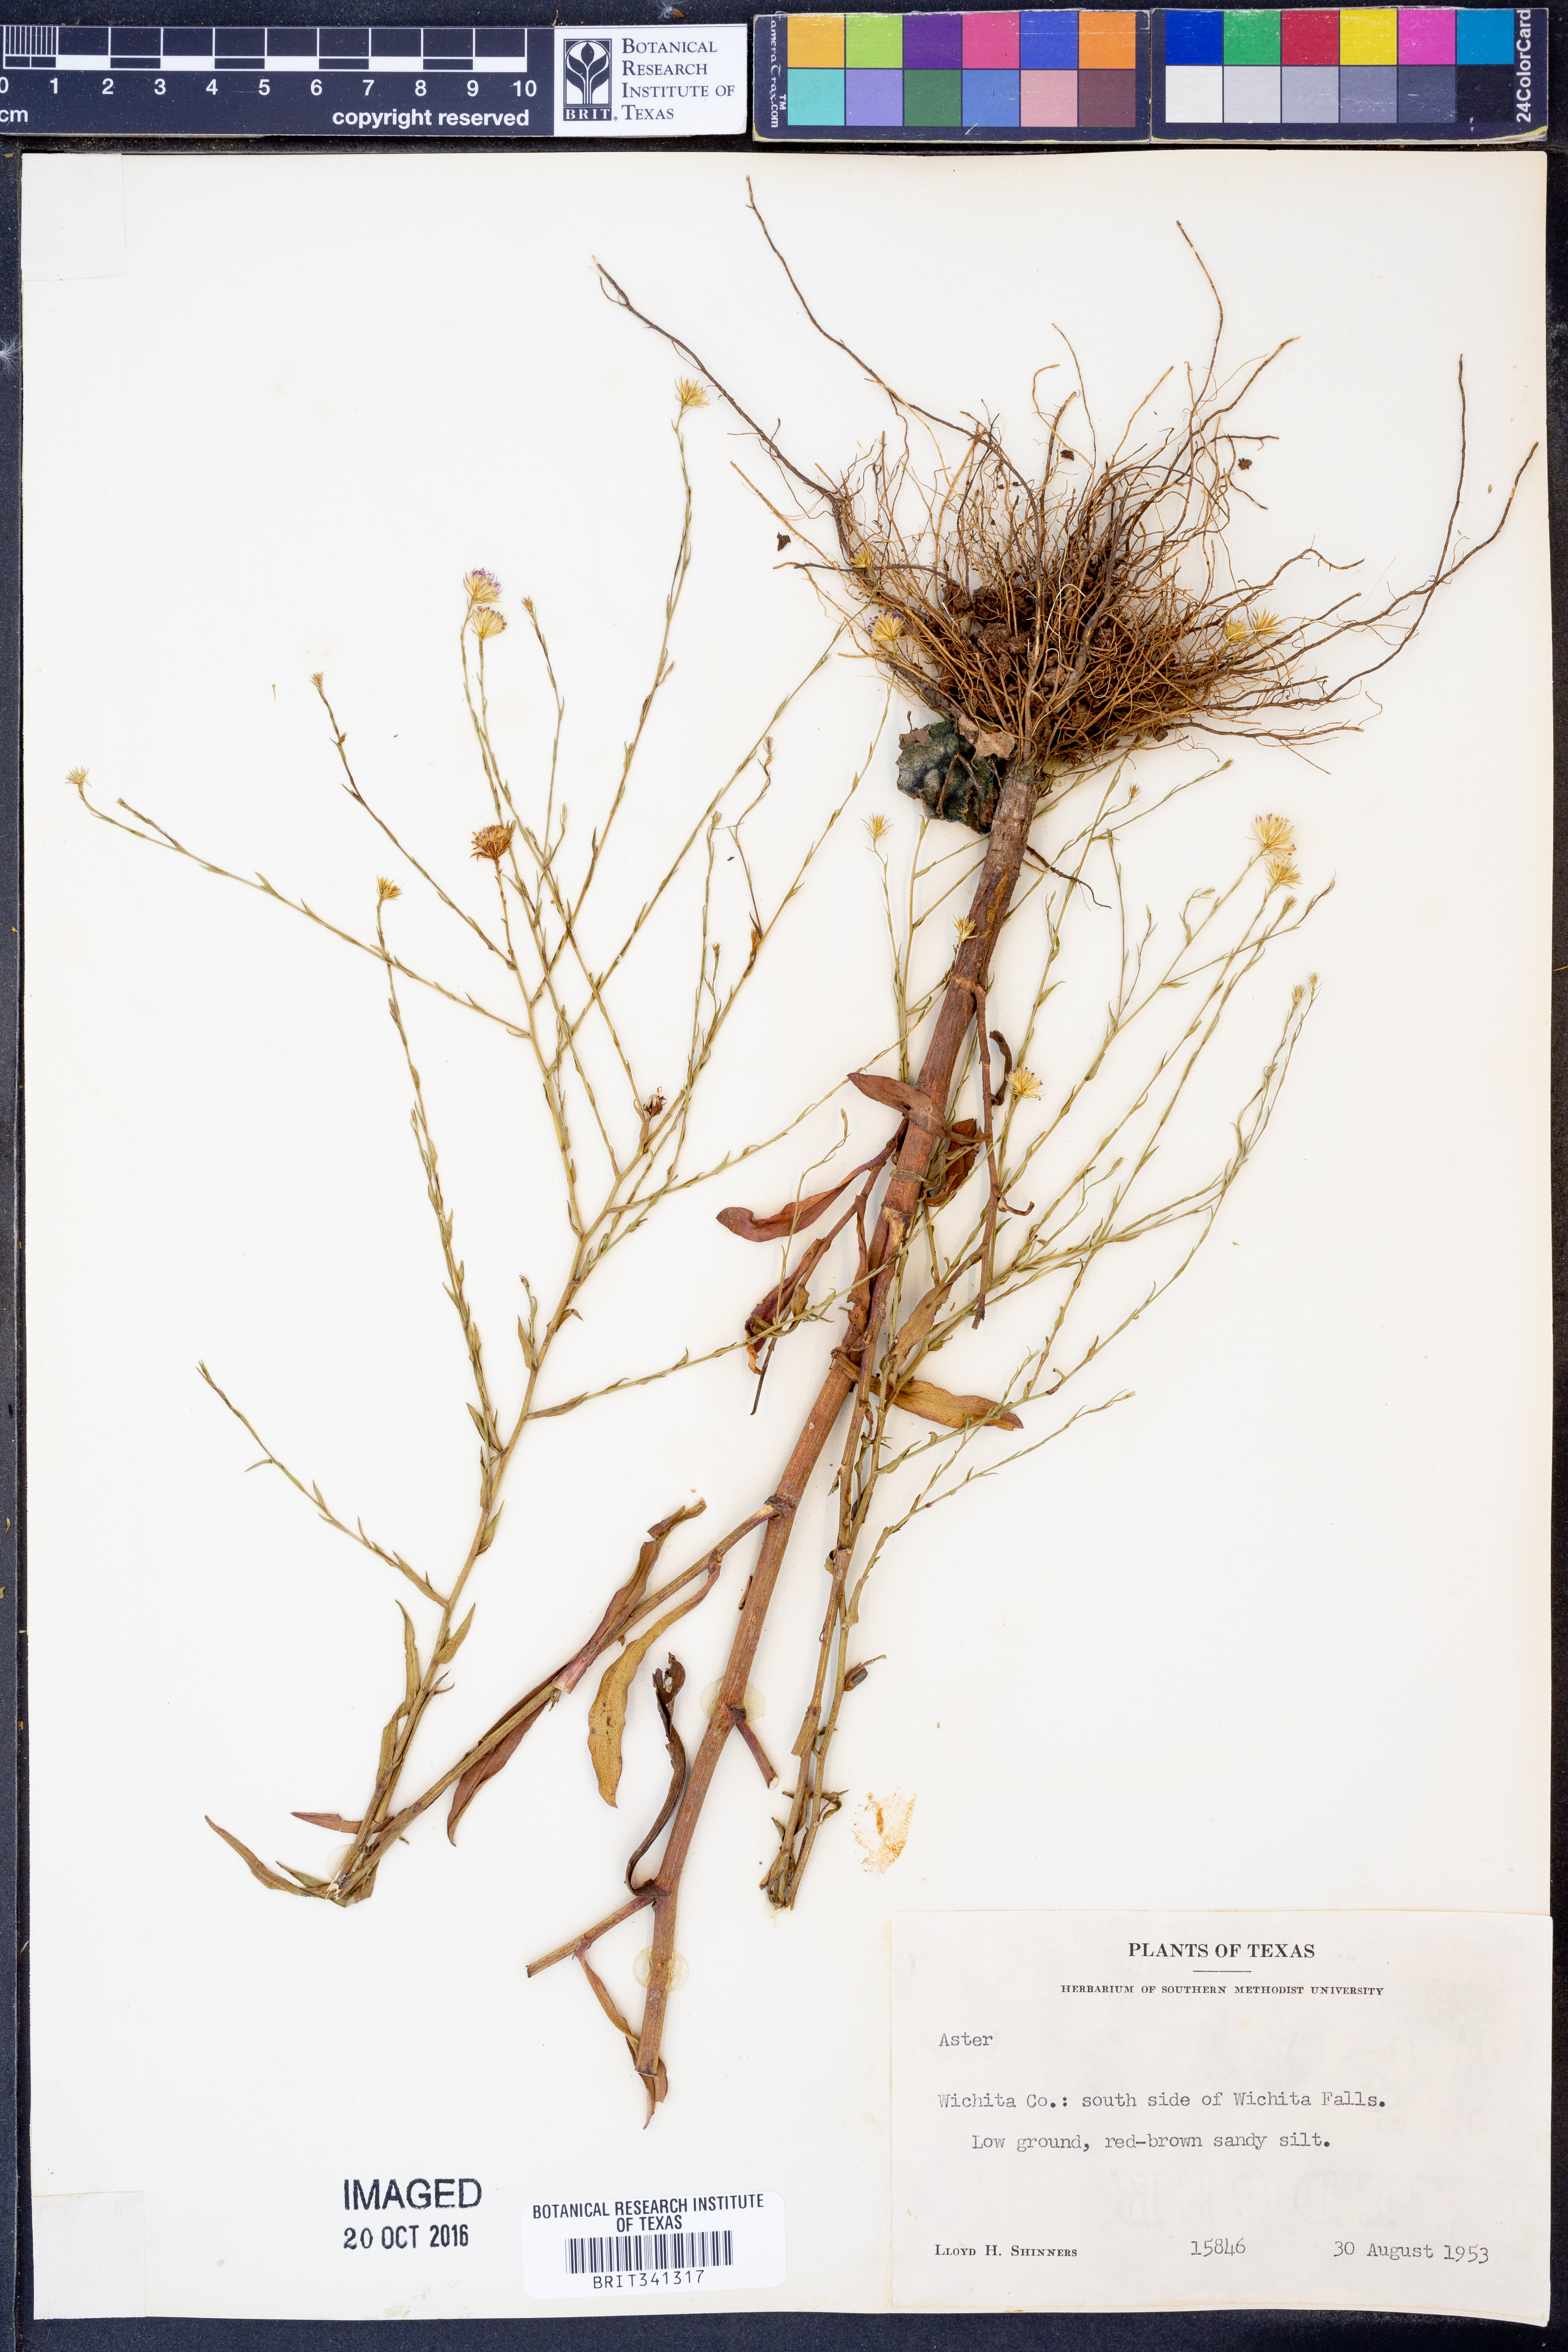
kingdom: Plantae
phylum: Tracheophyta
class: Magnoliopsida
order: Asterales
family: Asteraceae
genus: Aster
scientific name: Aster
